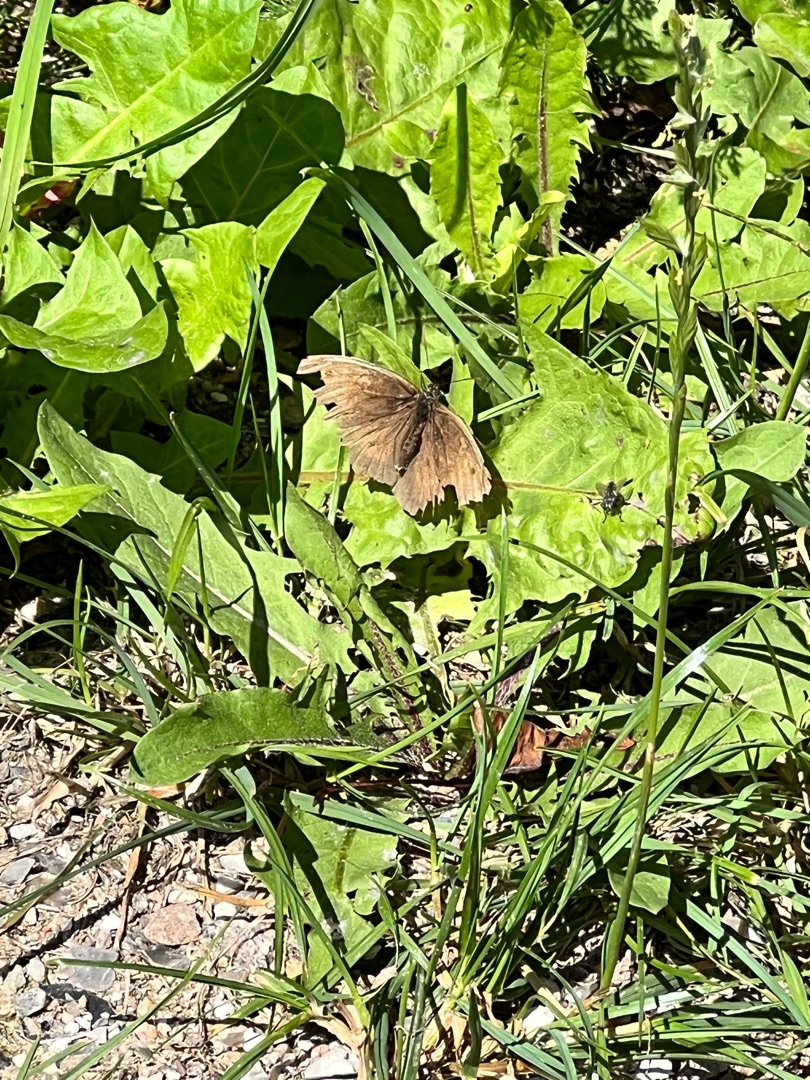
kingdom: Animalia
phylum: Arthropoda
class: Insecta
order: Lepidoptera
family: Nymphalidae
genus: Maniola
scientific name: Maniola jurtina
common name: Græsrandøje
